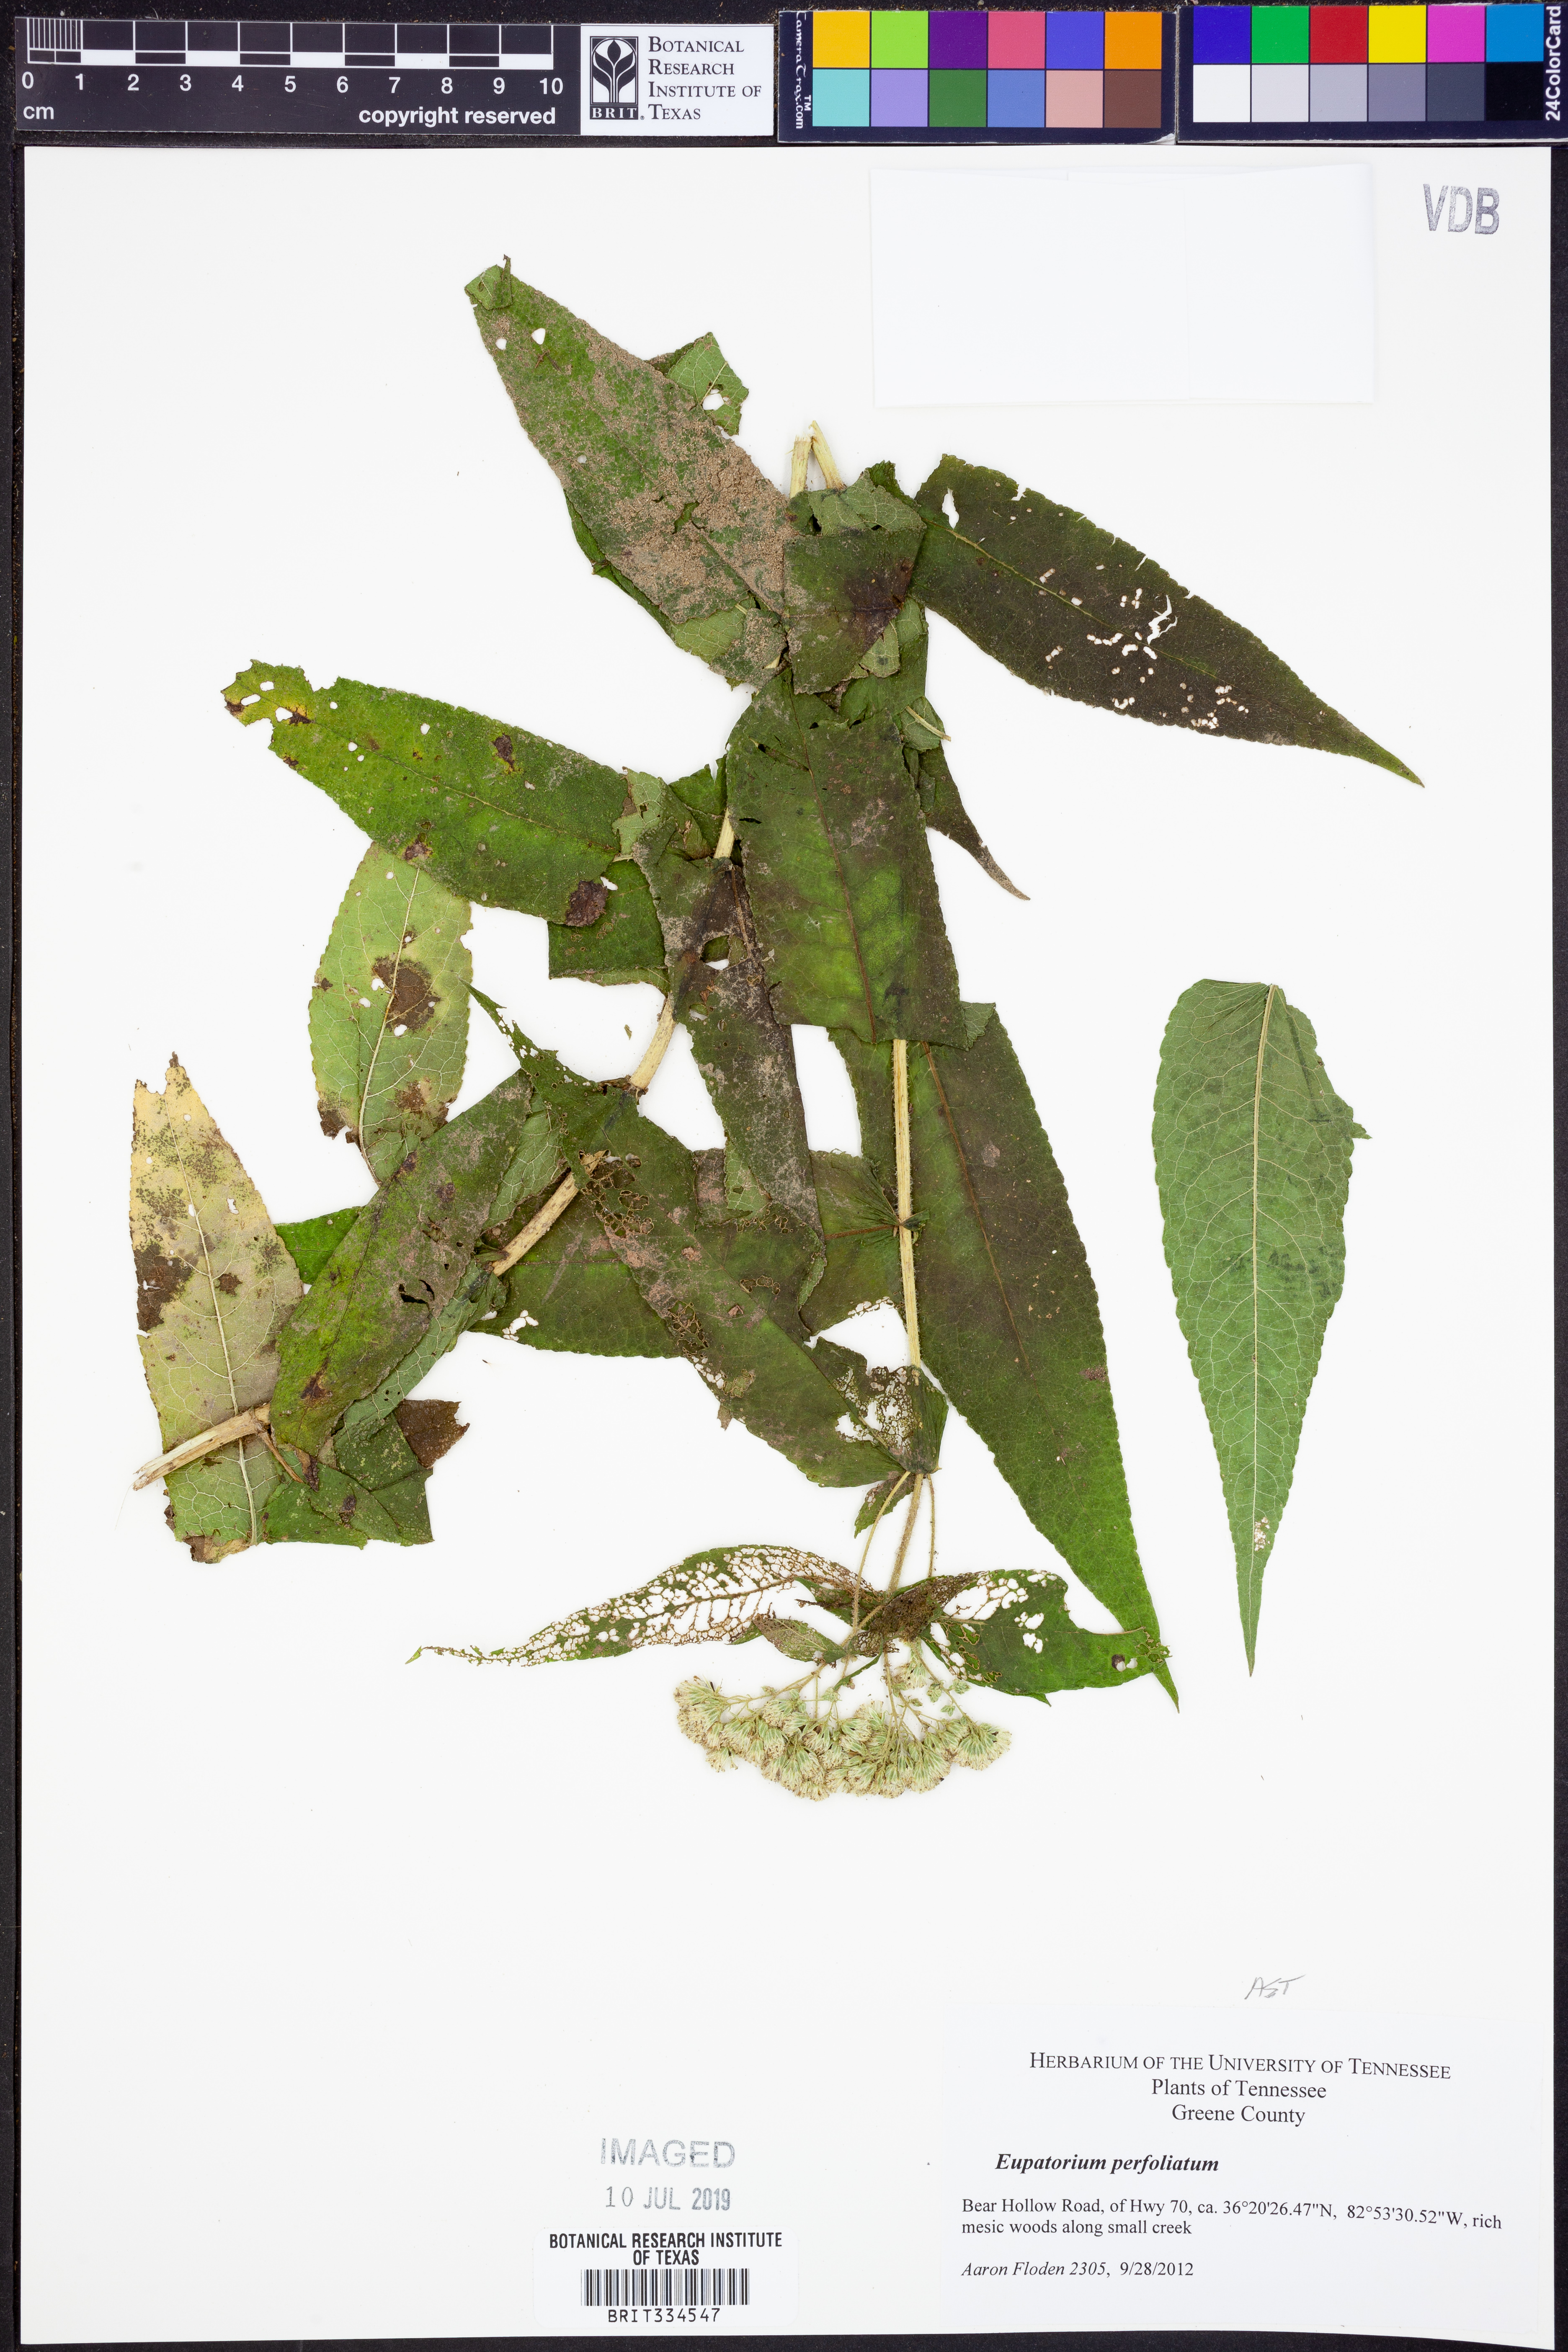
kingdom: Plantae
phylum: Tracheophyta
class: Magnoliopsida
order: Asterales
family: Asteraceae
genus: Eupatorium
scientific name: Eupatorium perfoliatum
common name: Boneset
